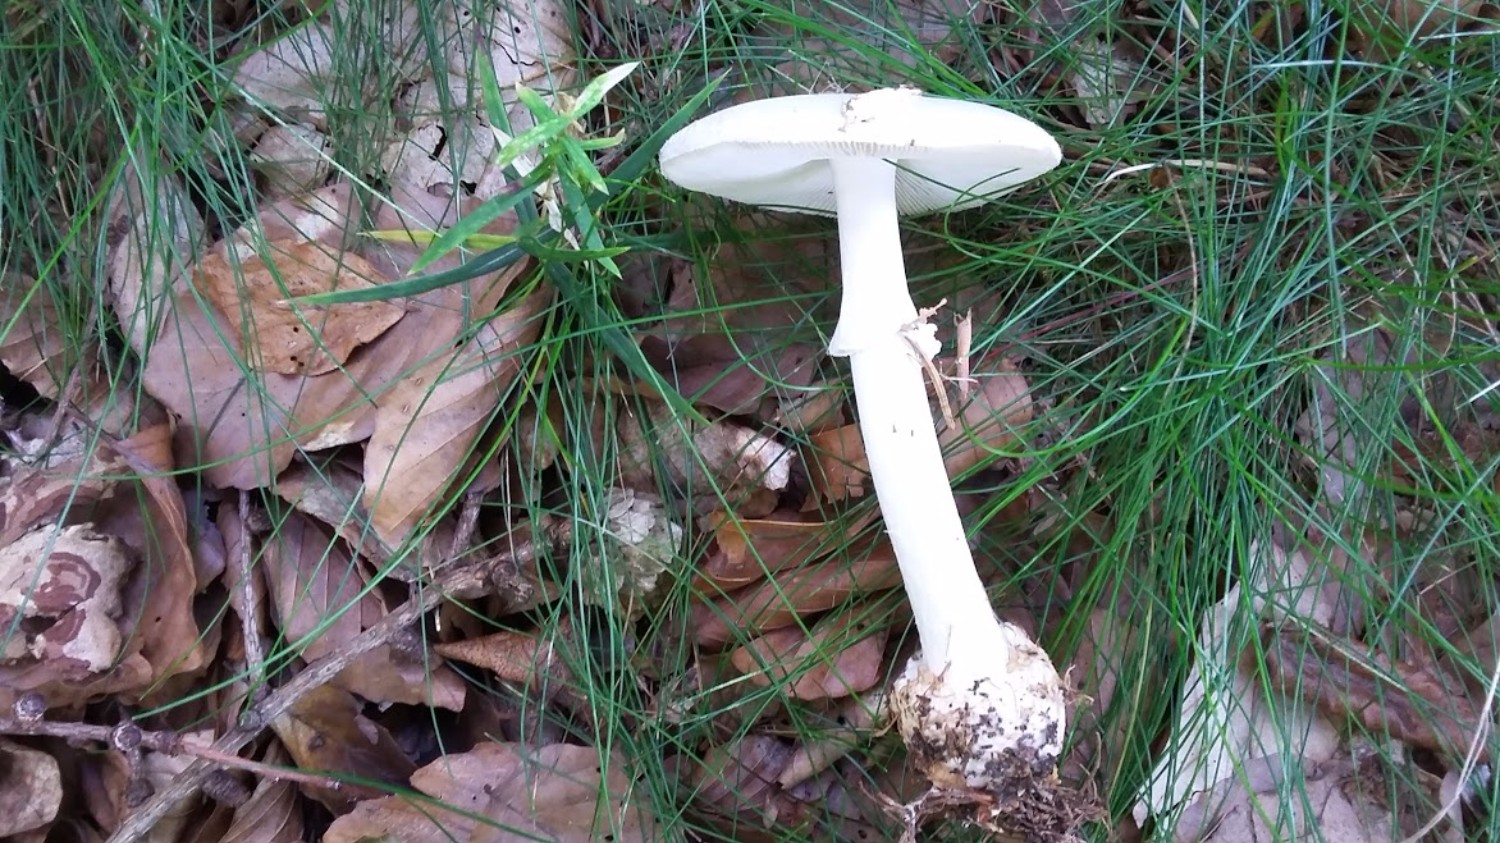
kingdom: Fungi
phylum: Basidiomycota
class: Agaricomycetes
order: Agaricales
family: Amanitaceae
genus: Amanita
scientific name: Amanita virosa
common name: snehvid fluesvamp
